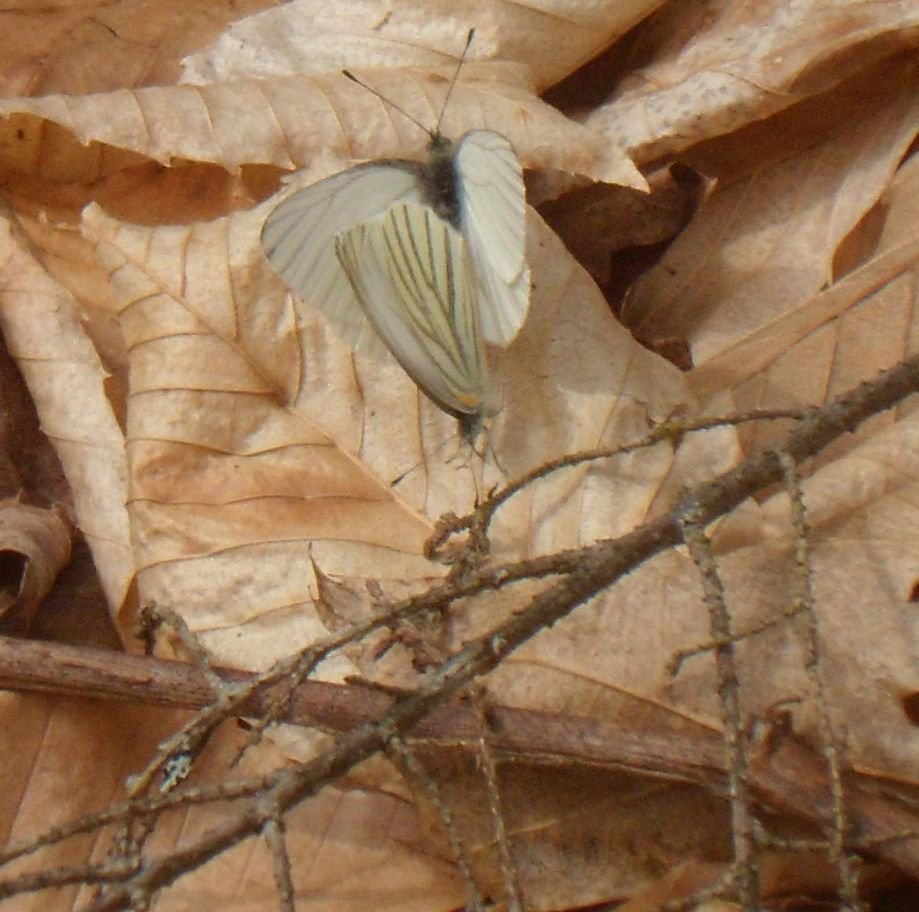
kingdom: Animalia
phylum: Arthropoda
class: Insecta
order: Lepidoptera
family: Pieridae
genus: Pieris
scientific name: Pieris rapae
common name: Cabbage White
